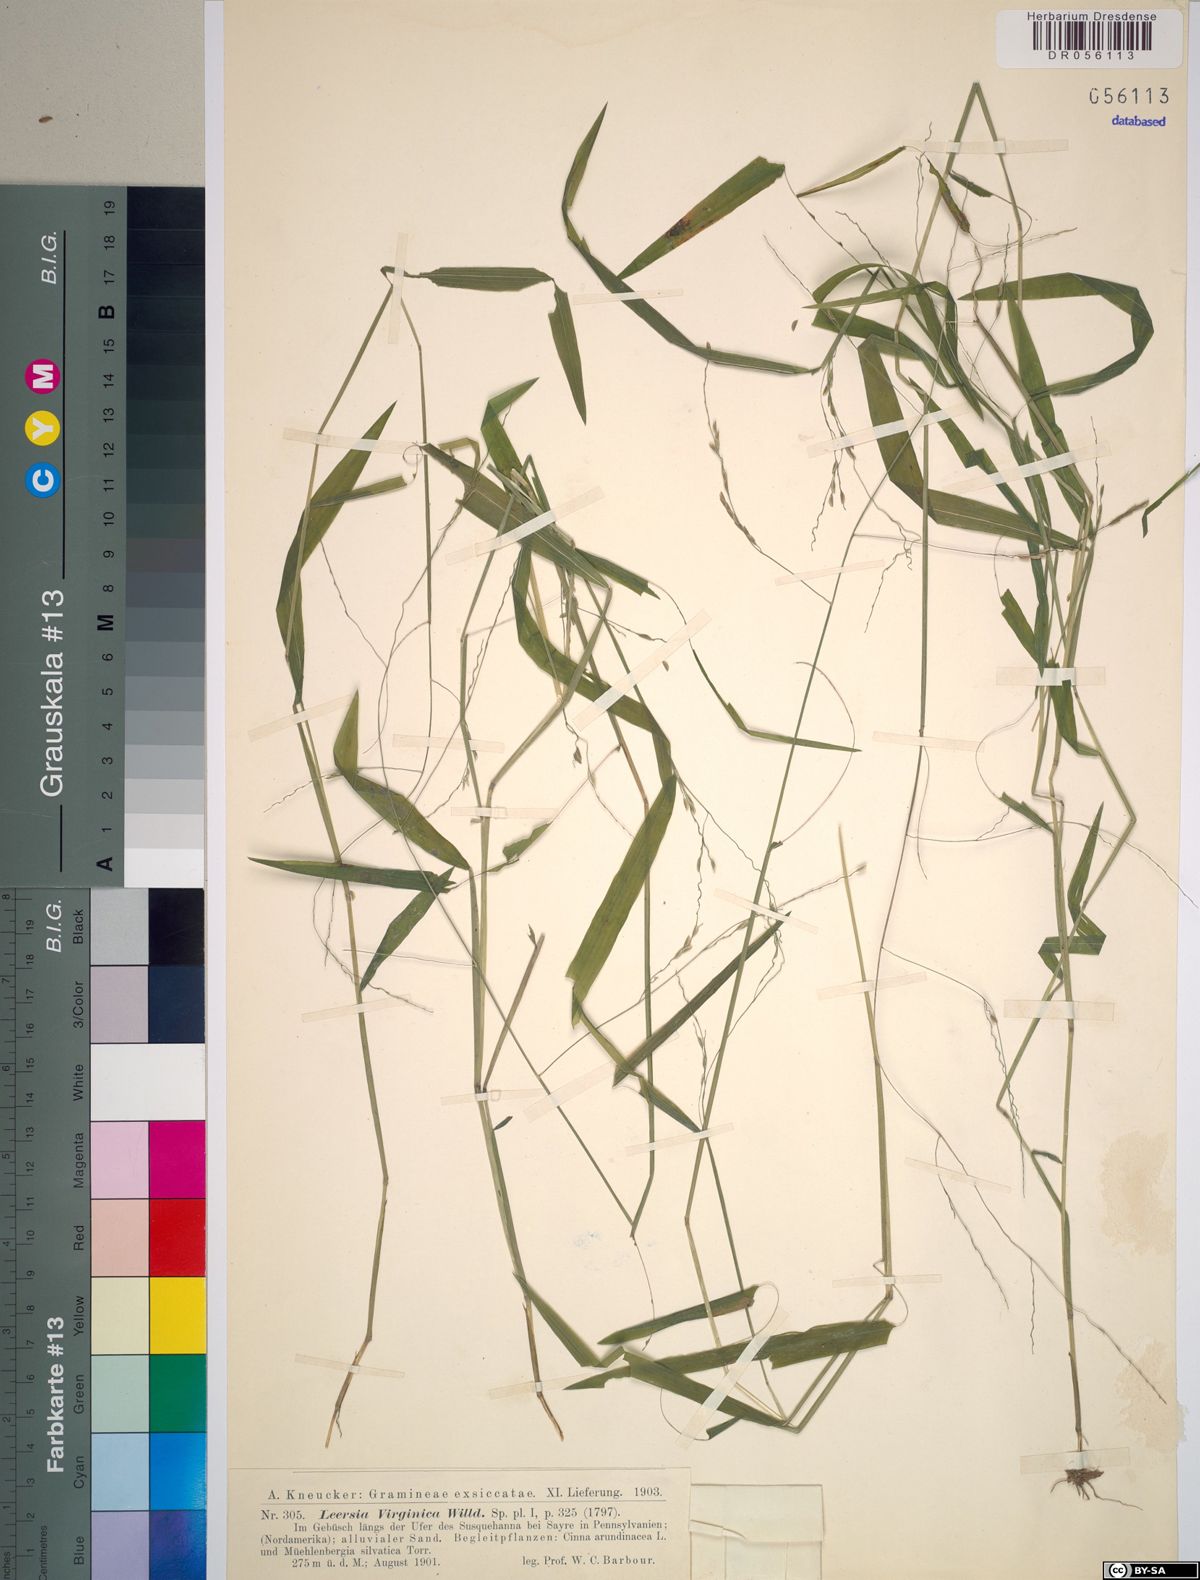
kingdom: Plantae
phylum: Tracheophyta
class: Liliopsida
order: Poales
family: Poaceae
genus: Leersia
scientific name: Leersia virginica
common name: White cutgrass
